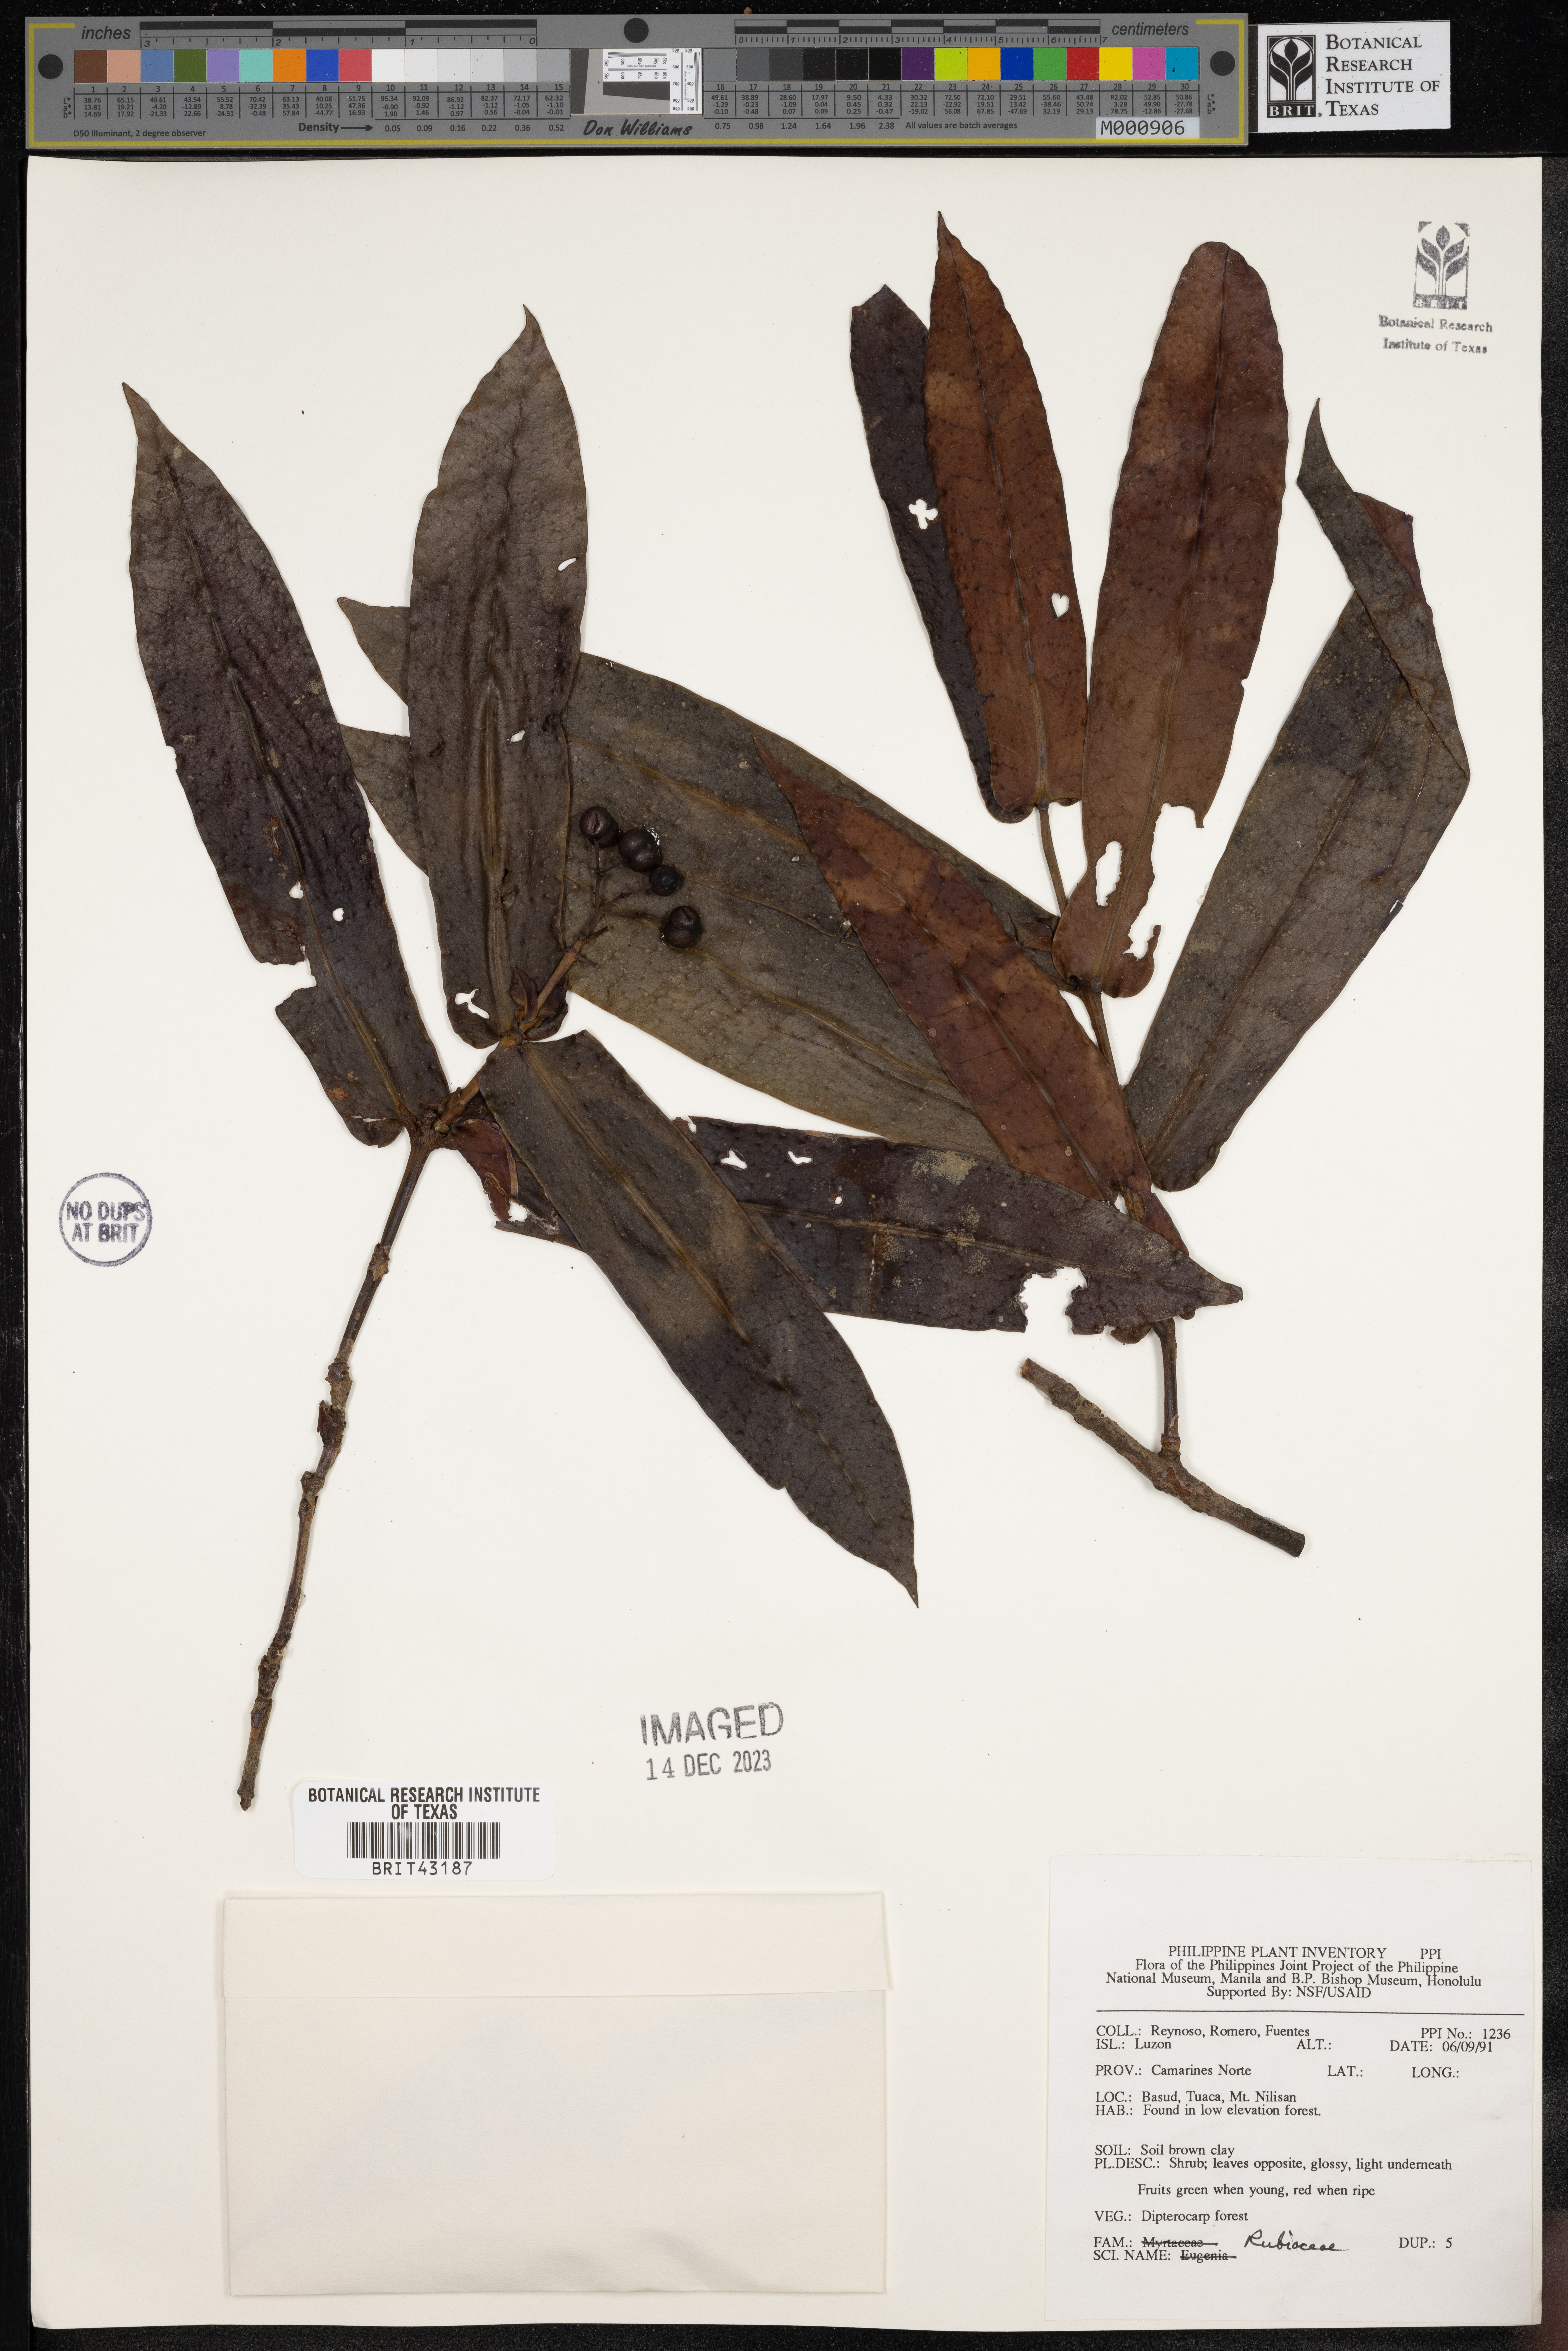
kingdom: Plantae
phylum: Tracheophyta
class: Magnoliopsida
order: Gentianales
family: Rubiaceae
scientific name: Rubiaceae
